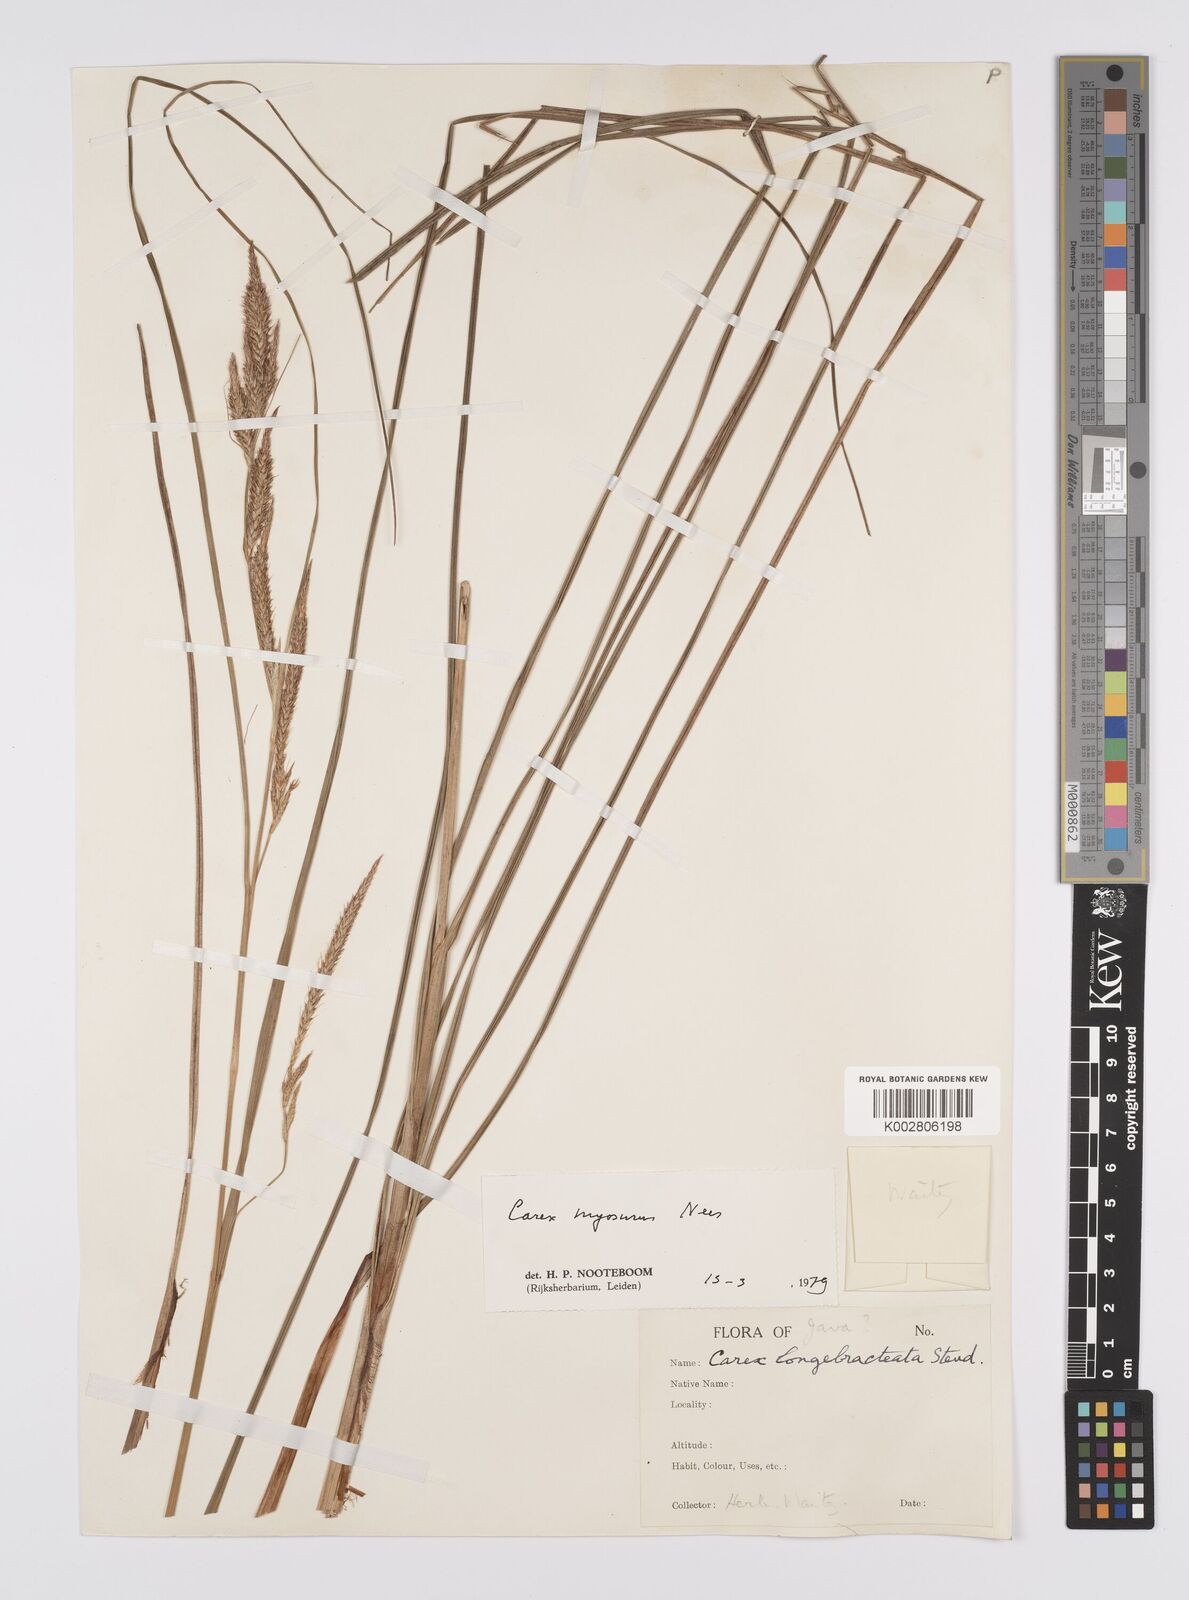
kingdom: Plantae
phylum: Tracheophyta
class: Liliopsida
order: Poales
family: Cyperaceae
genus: Carex
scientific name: Carex myosurus
